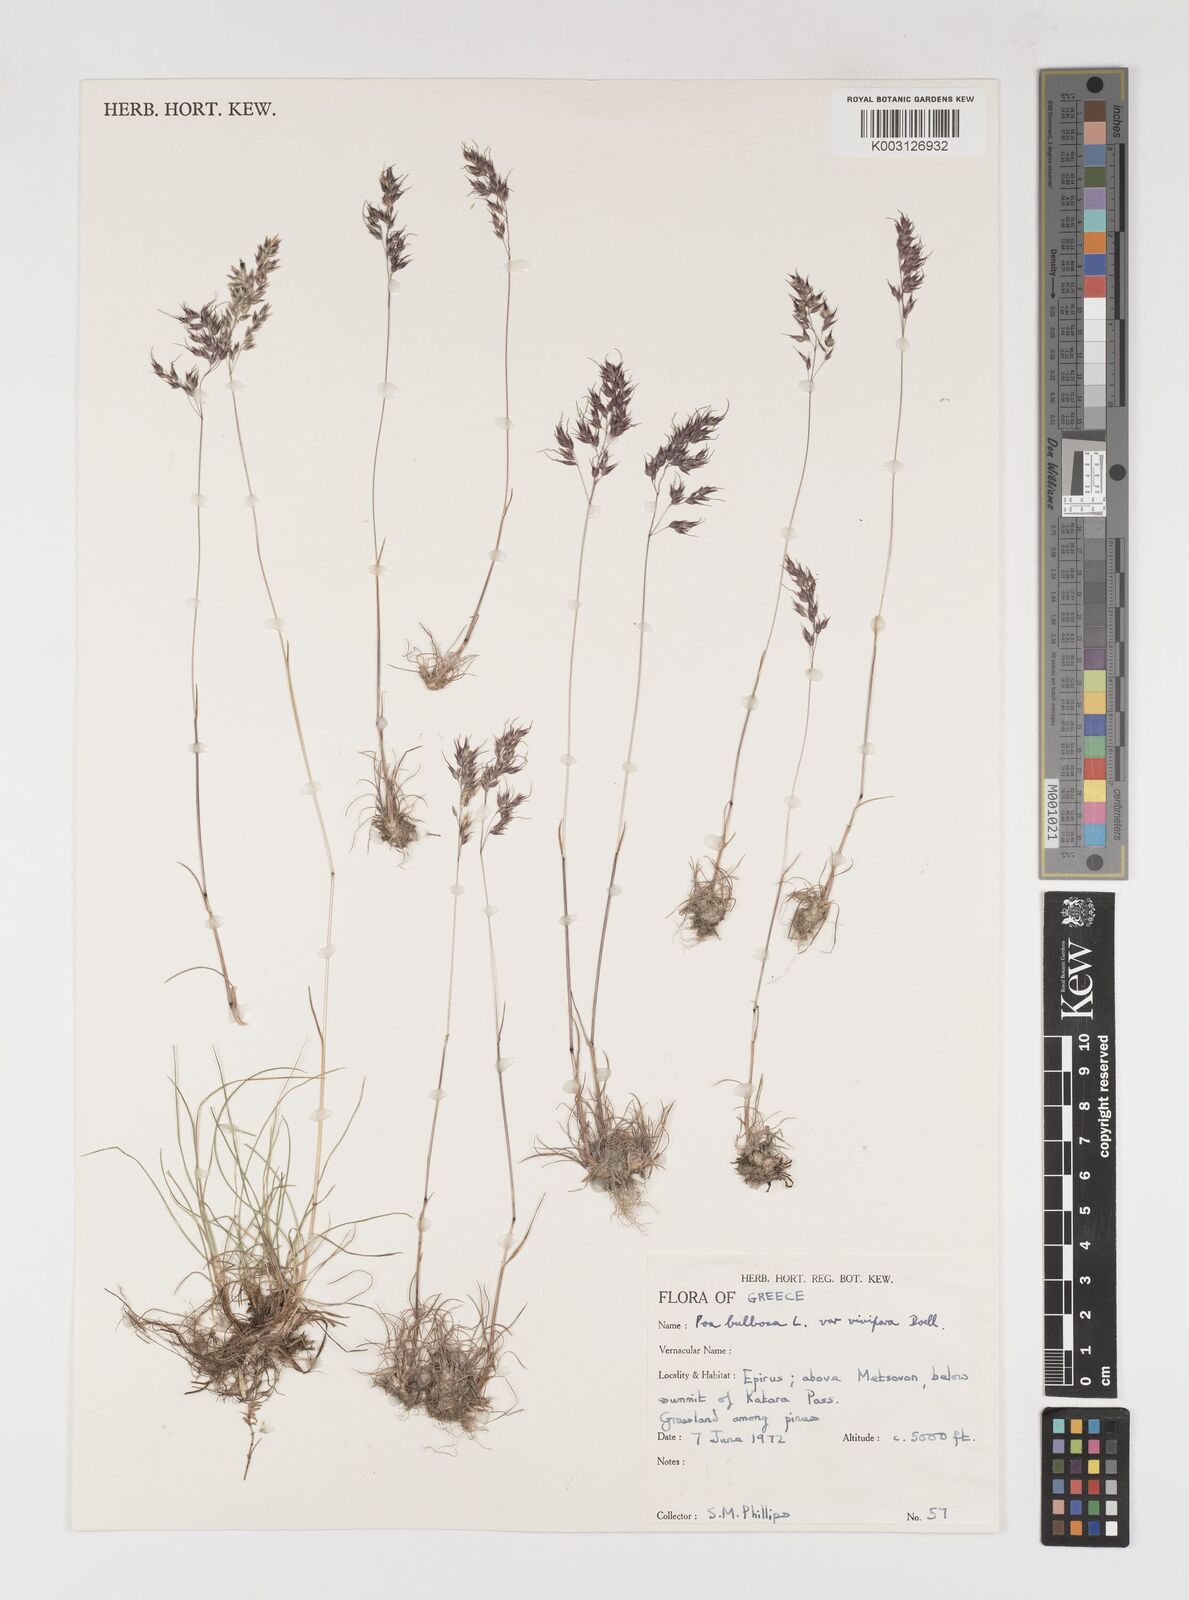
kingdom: Plantae
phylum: Tracheophyta
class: Liliopsida
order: Poales
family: Poaceae
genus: Poa
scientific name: Poa bulbosa
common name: Bulbous bluegrass
